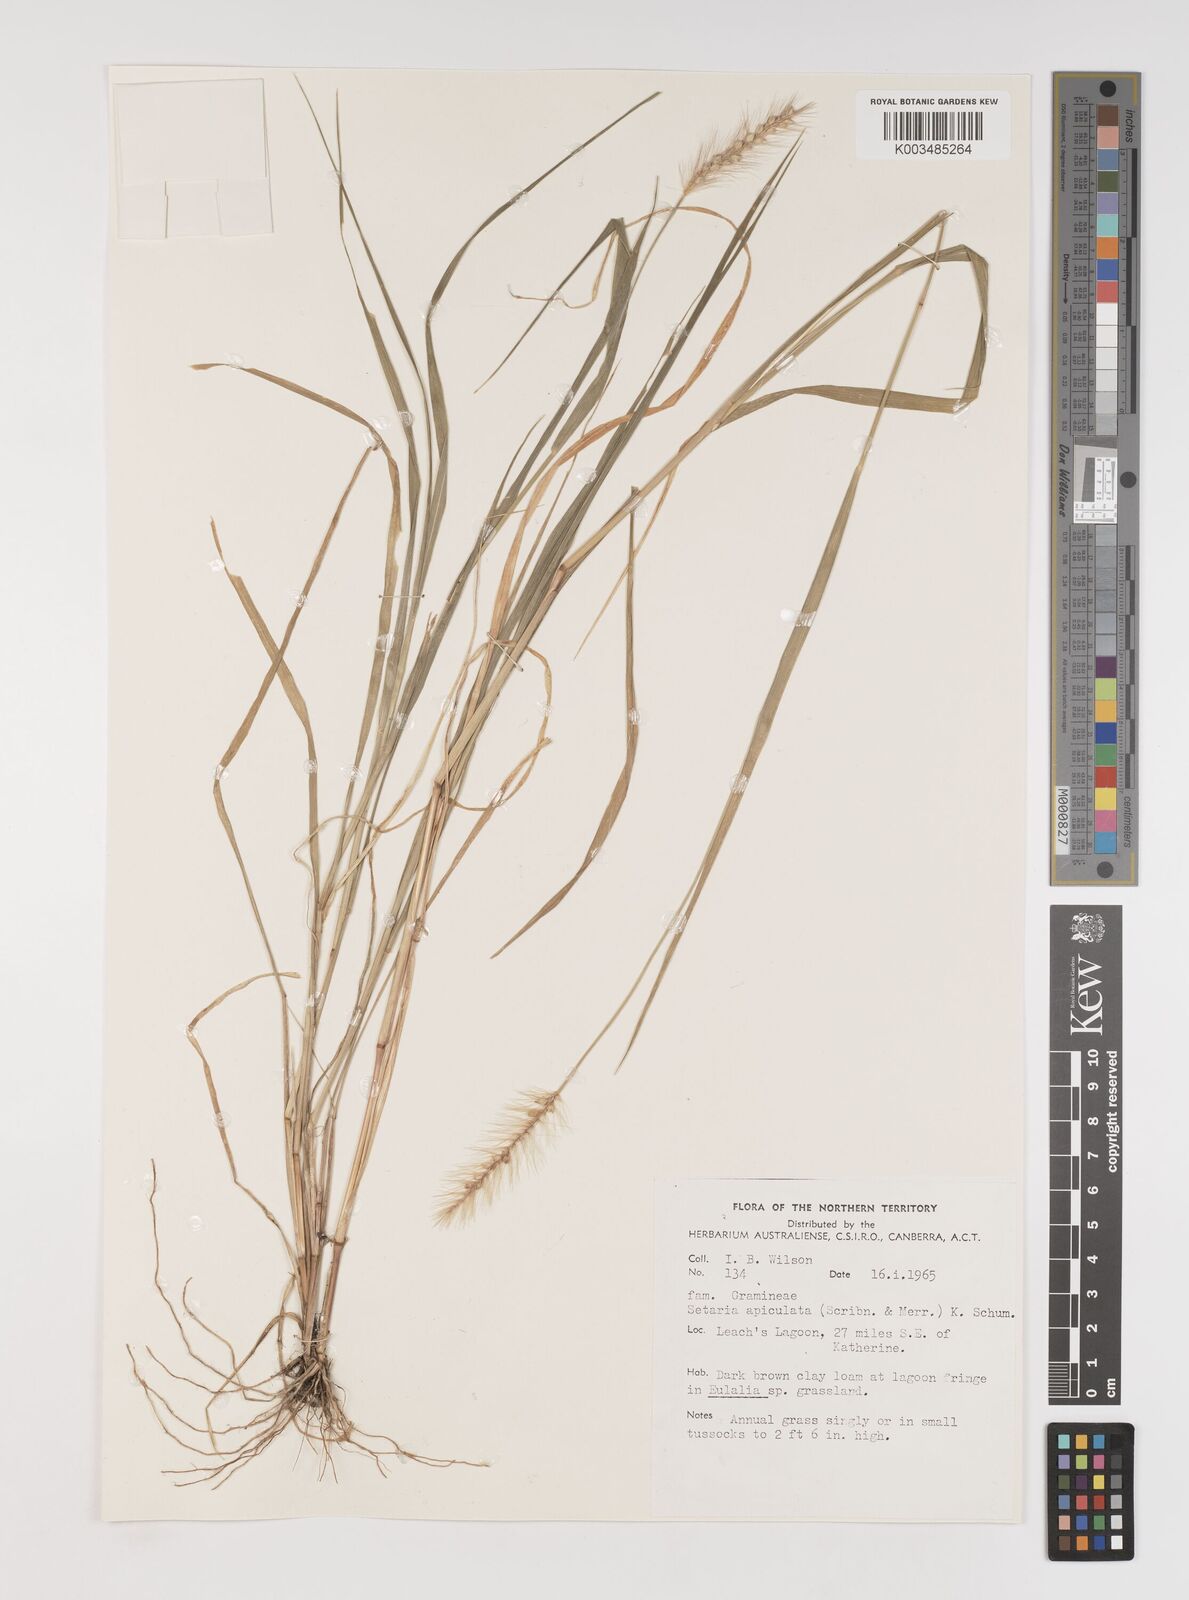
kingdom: Plantae
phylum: Tracheophyta
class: Liliopsida
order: Poales
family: Poaceae
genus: Setaria
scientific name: Setaria surgens
